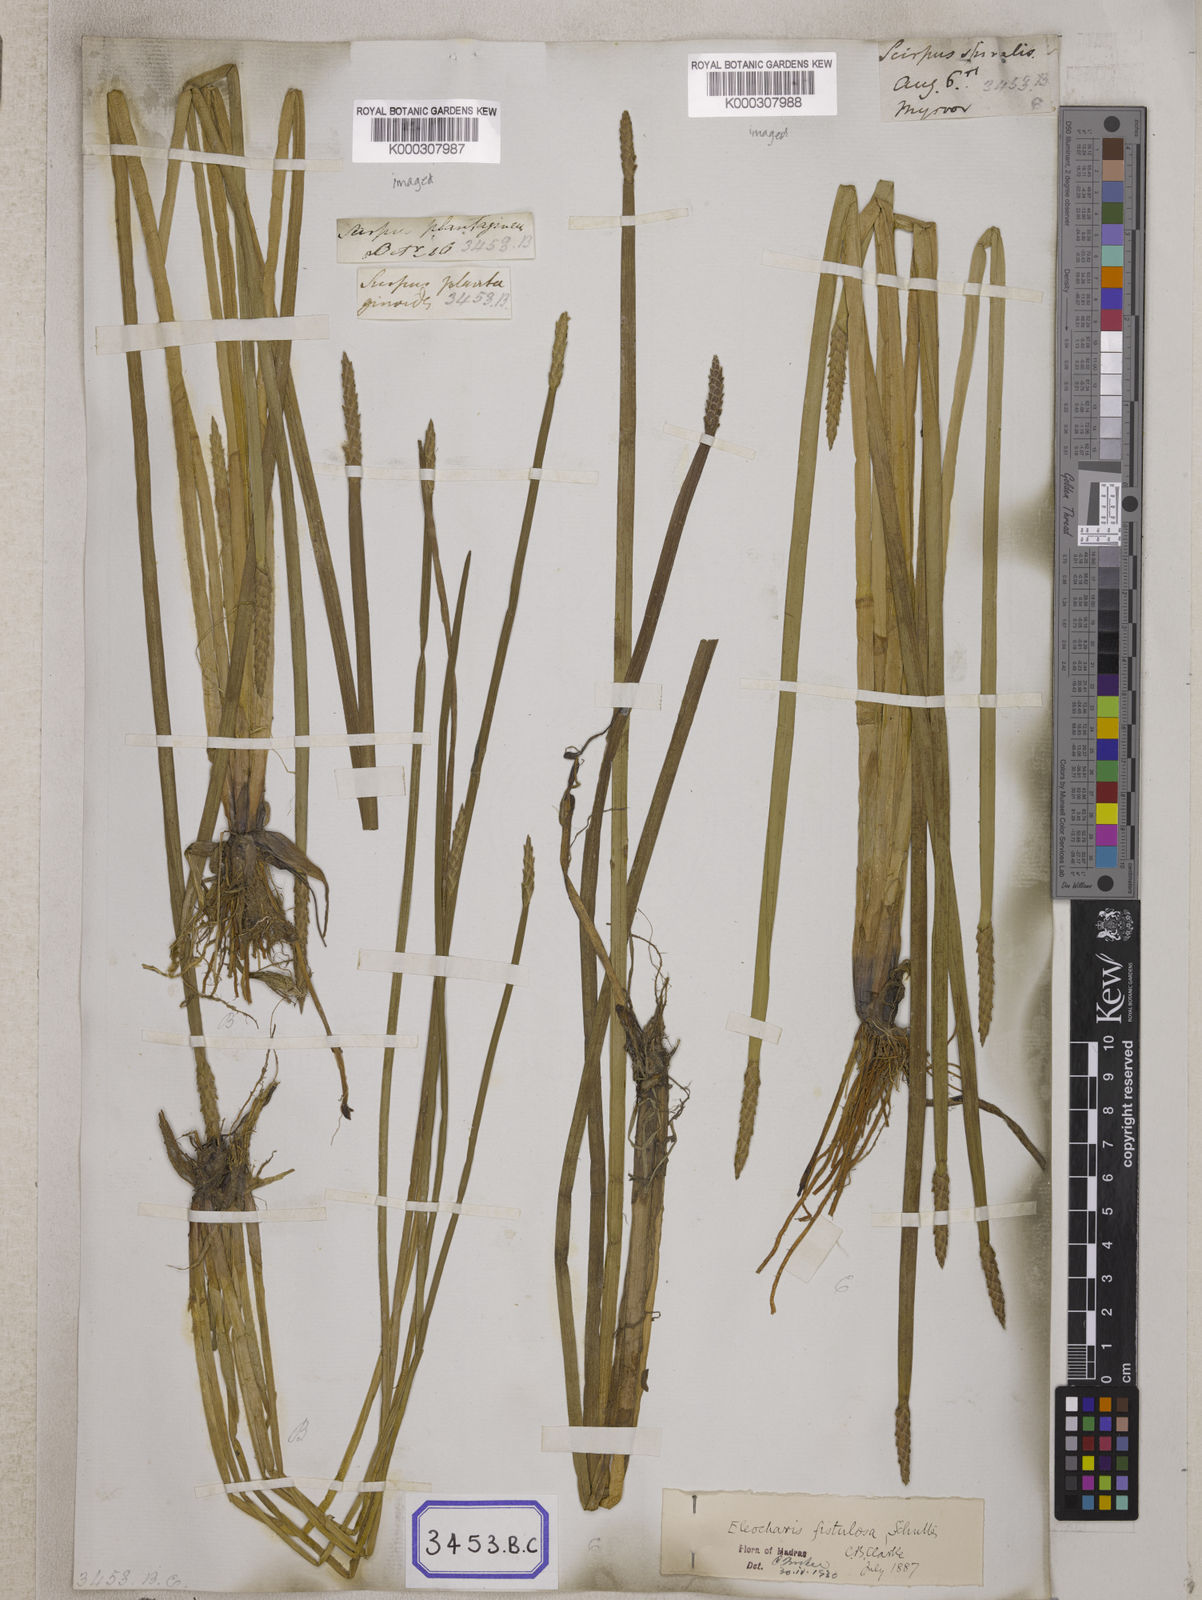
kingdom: Plantae
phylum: Tracheophyta
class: Liliopsida
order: Poales
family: Cyperaceae
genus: Eleocharis
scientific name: Eleocharis
